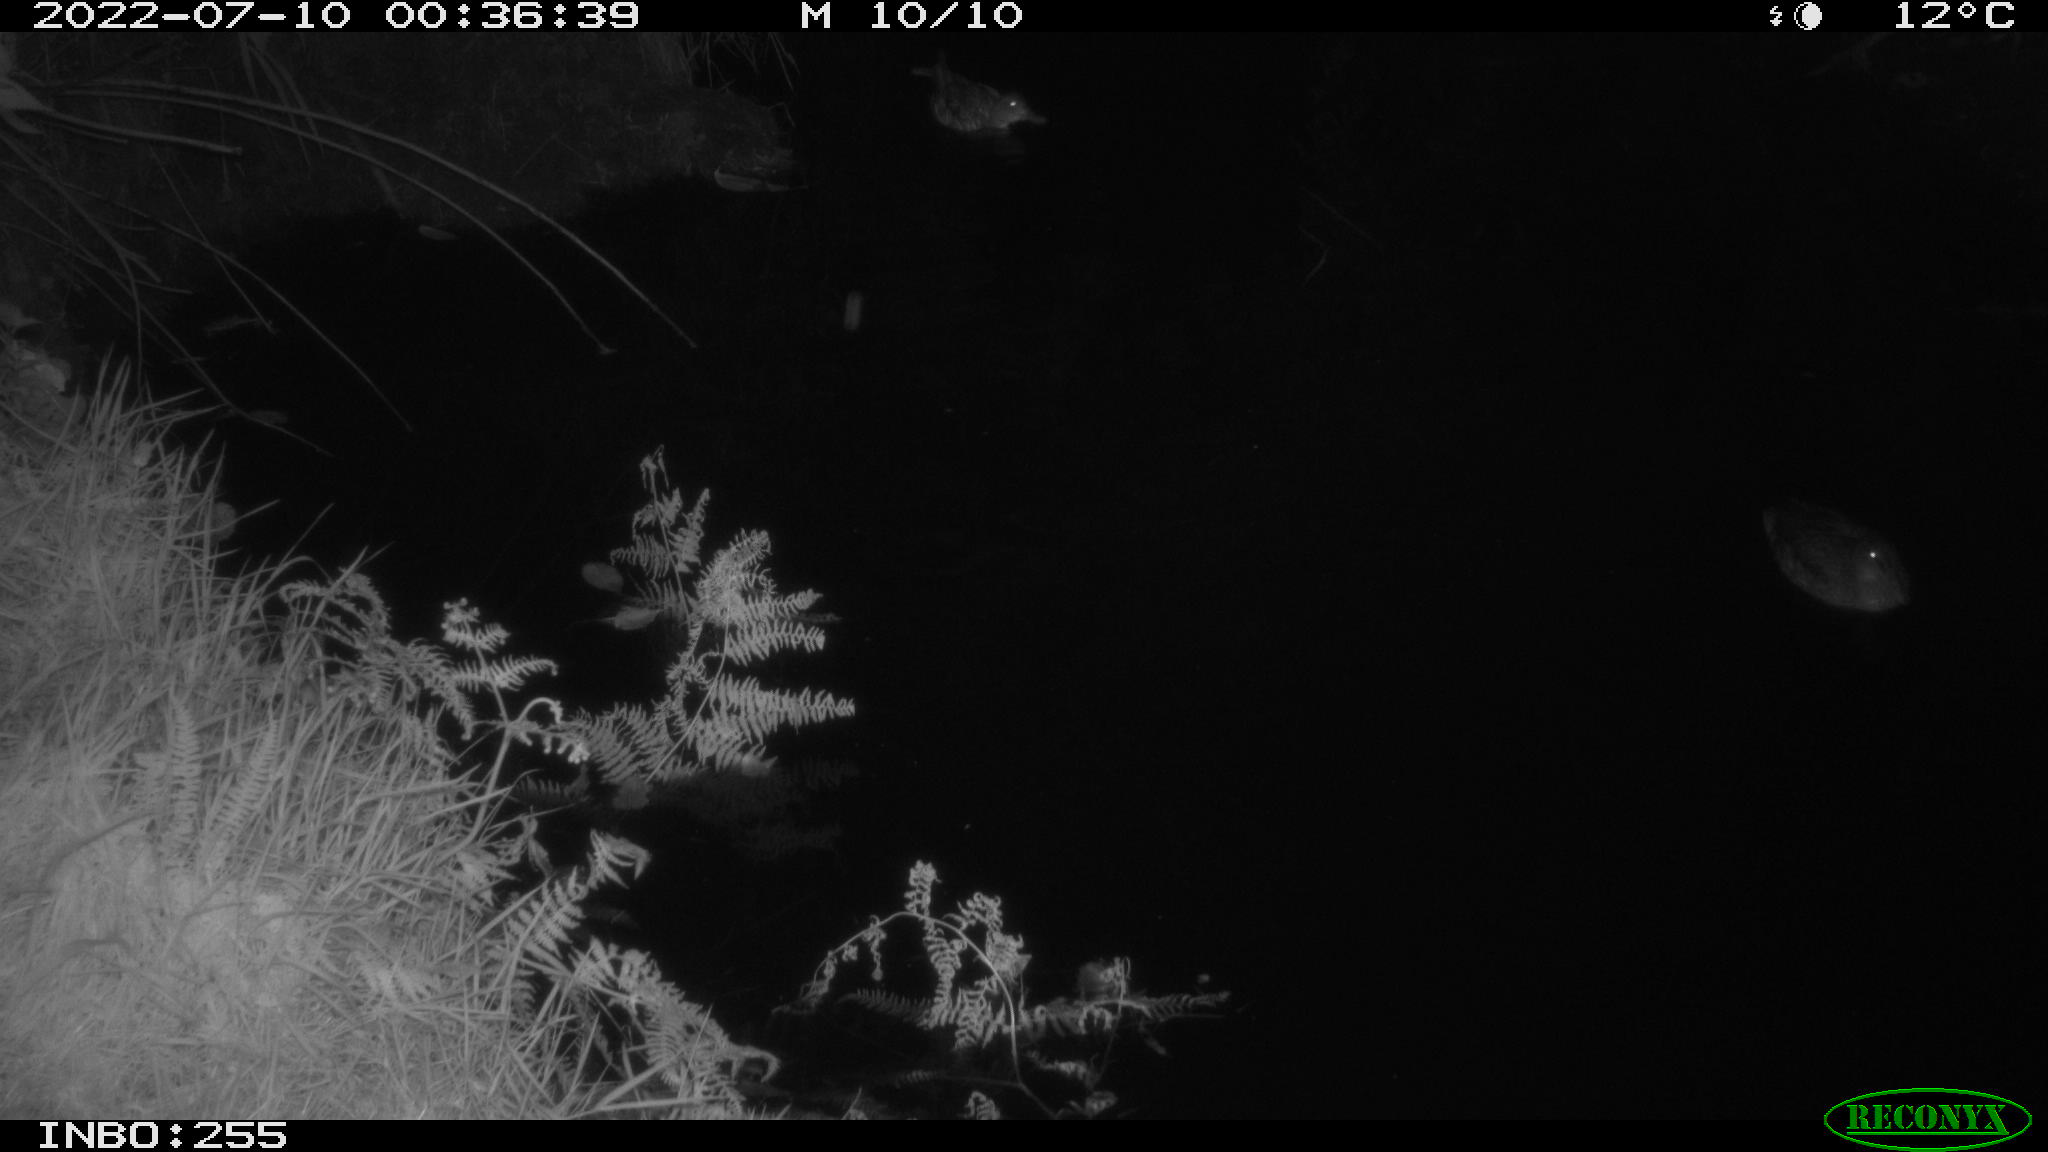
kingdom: Animalia
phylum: Chordata
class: Aves
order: Anseriformes
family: Anatidae
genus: Anas
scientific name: Anas platyrhynchos
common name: Mallard
